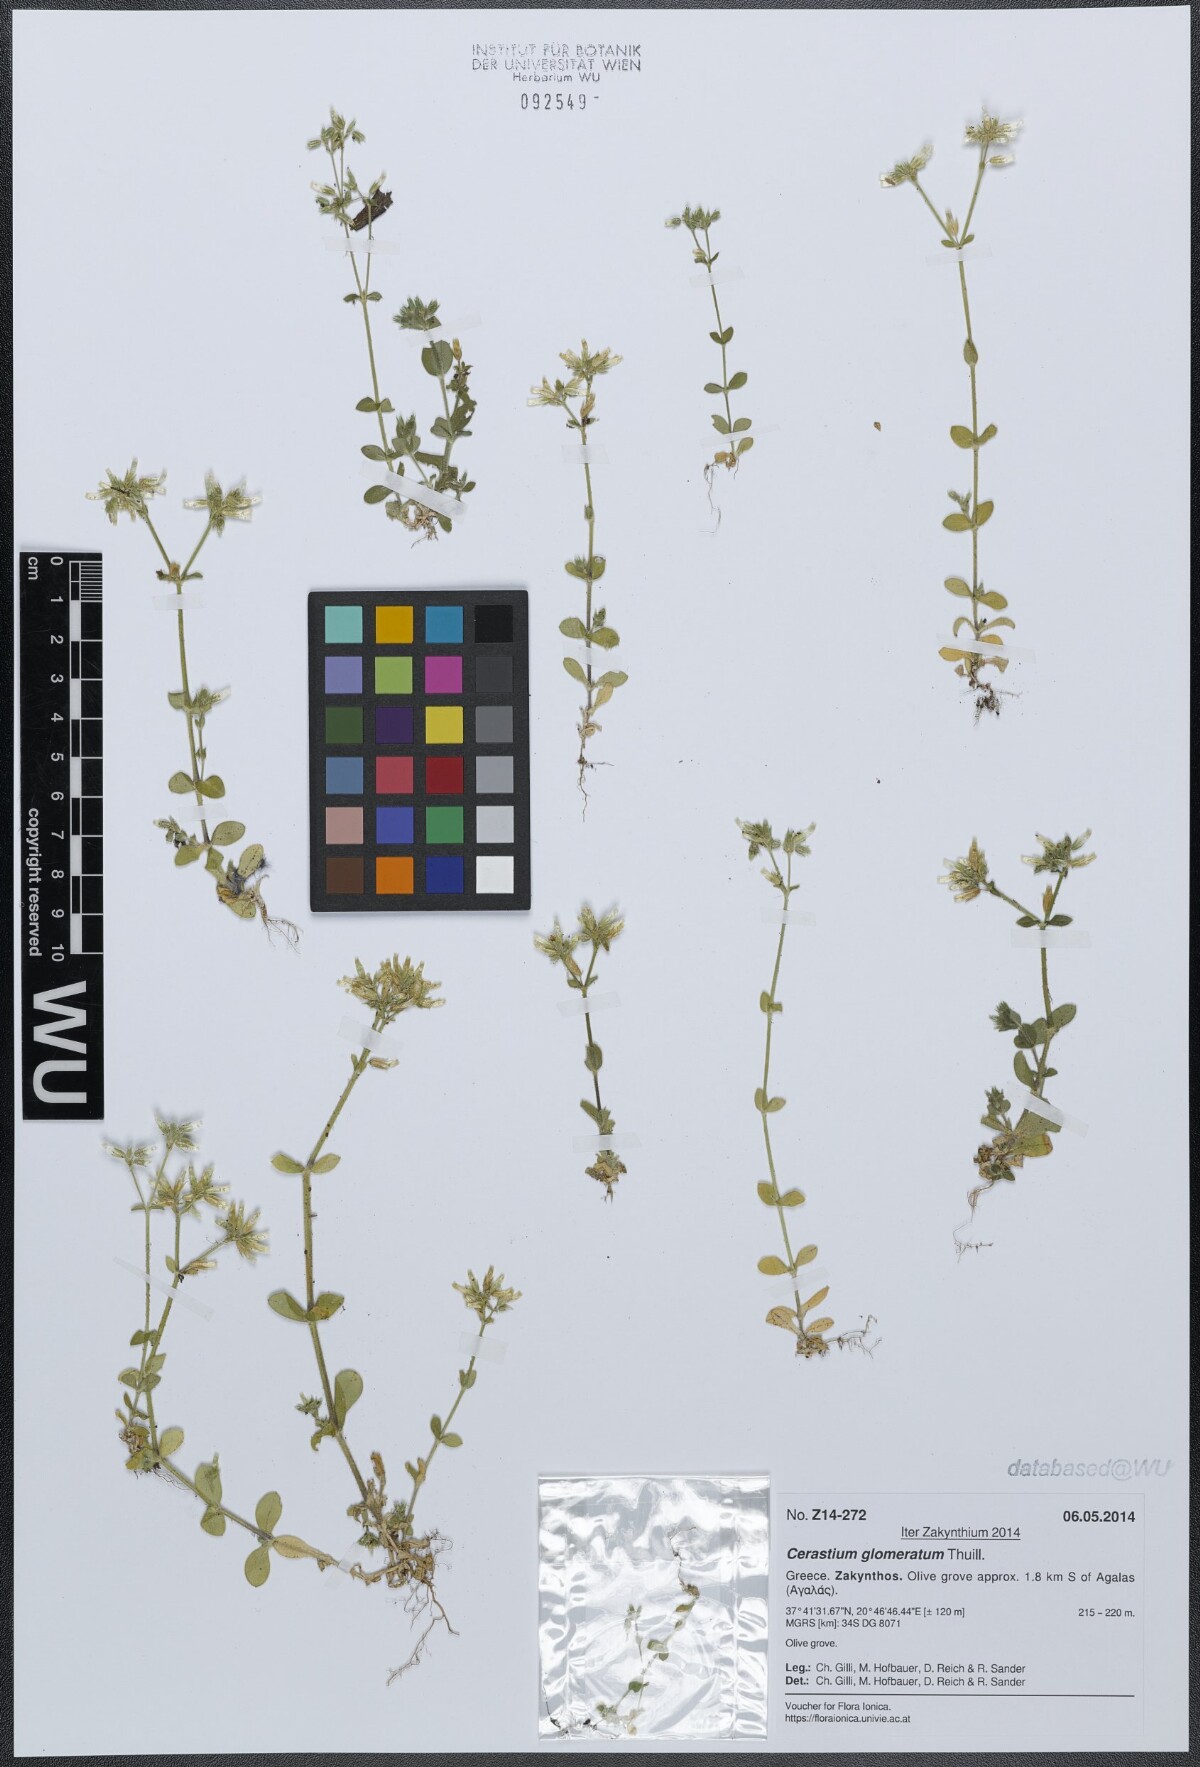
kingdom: Plantae
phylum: Tracheophyta
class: Magnoliopsida
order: Caryophyllales
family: Caryophyllaceae
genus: Cerastium
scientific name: Cerastium glomeratum
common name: Sticky chickweed
